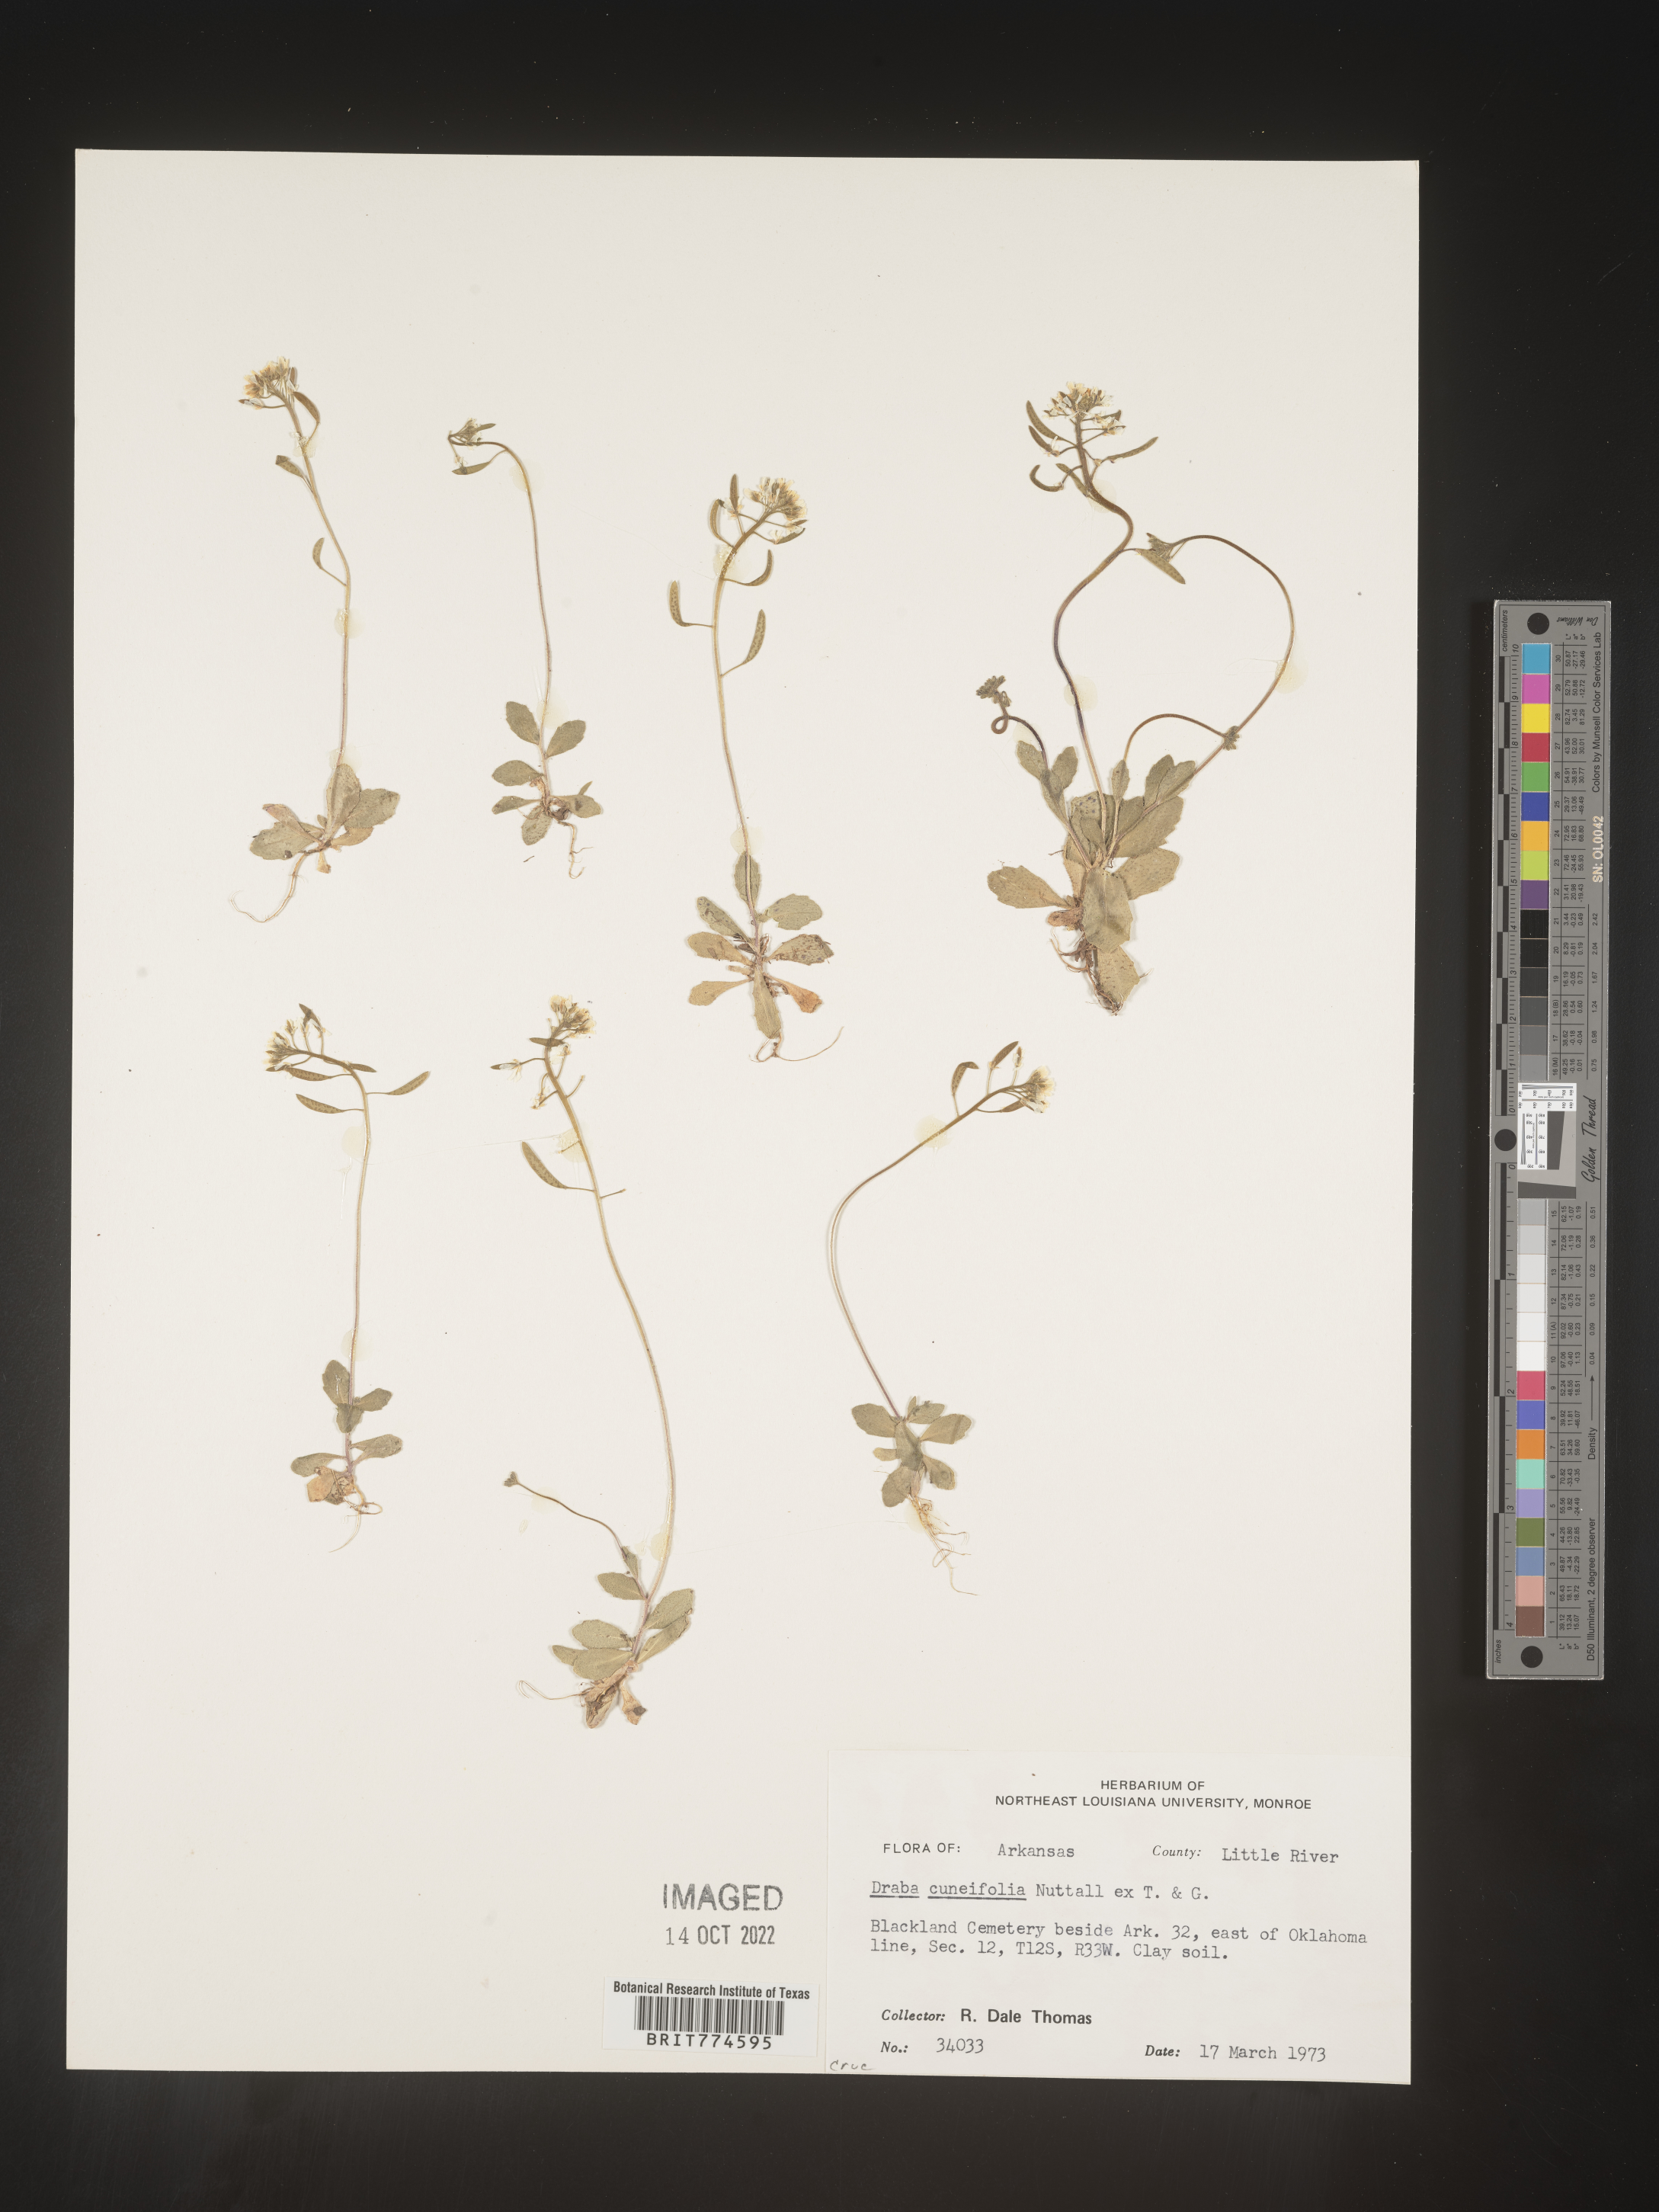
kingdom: Plantae
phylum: Tracheophyta
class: Magnoliopsida
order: Brassicales
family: Brassicaceae
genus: Tomostima
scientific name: Tomostima cuneifolia
